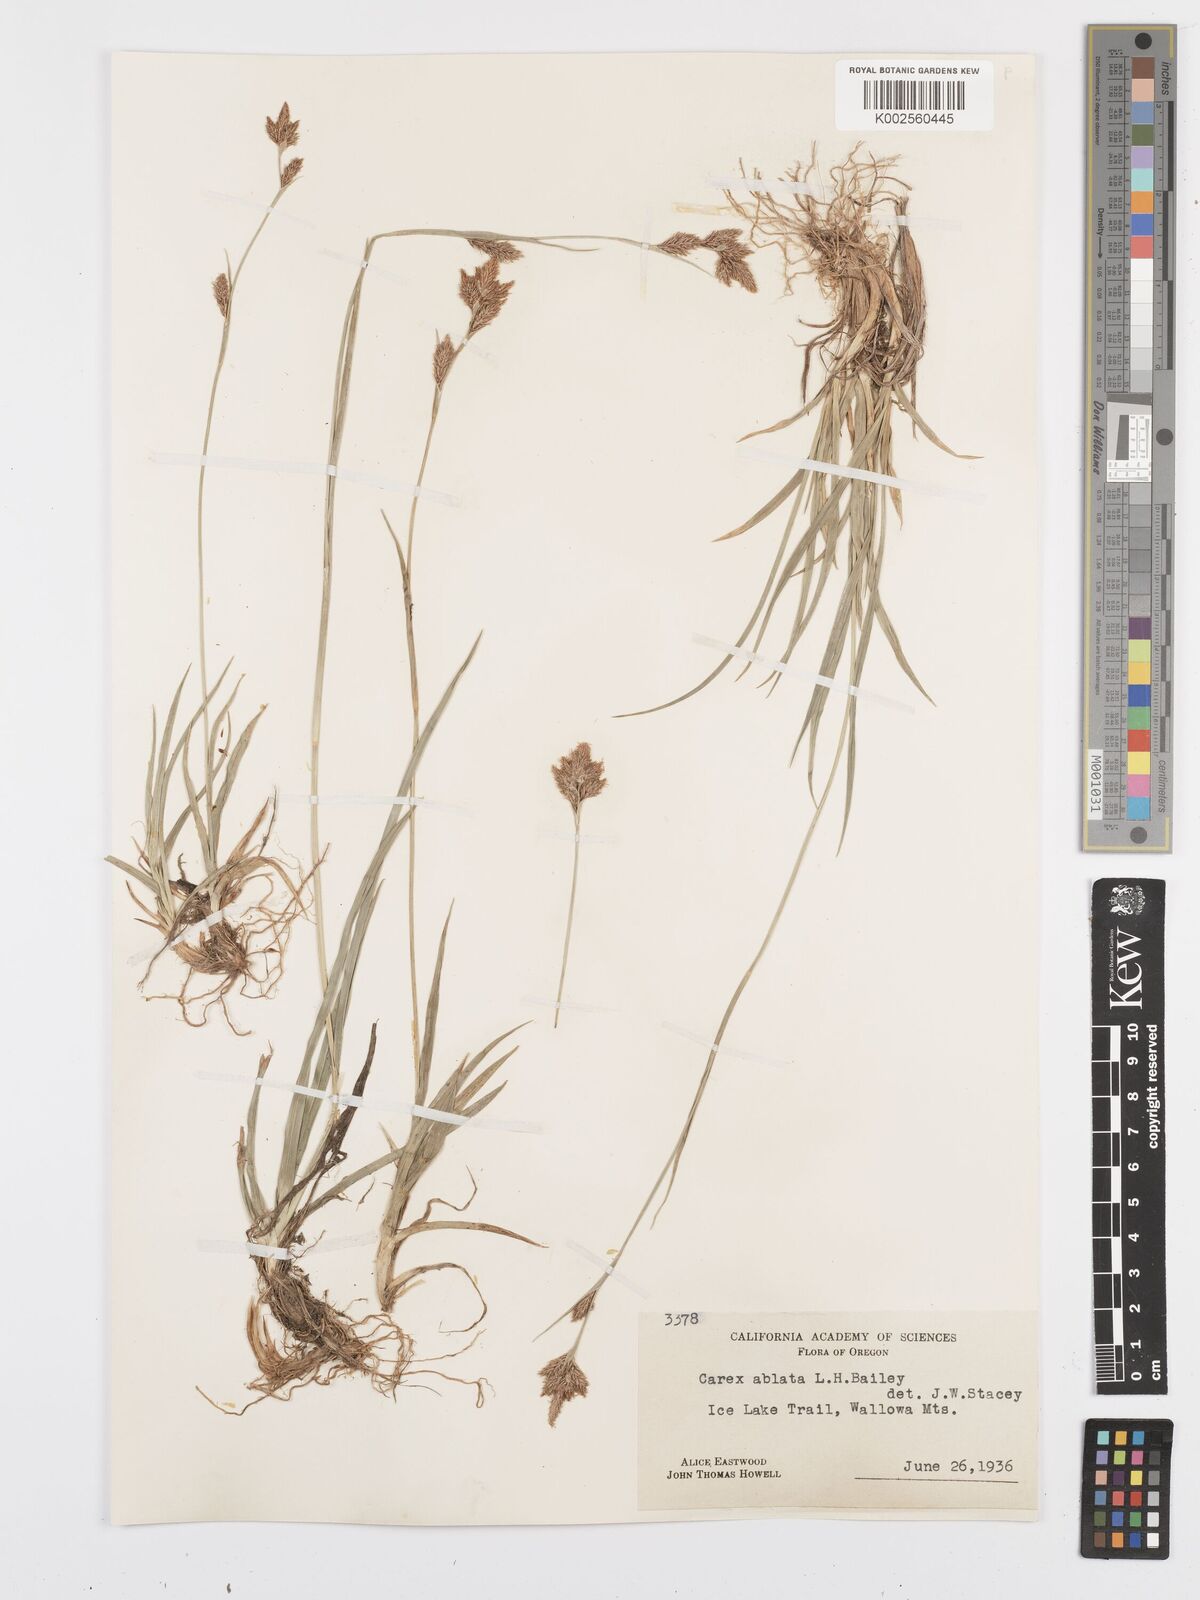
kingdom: Plantae
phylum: Tracheophyta
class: Liliopsida
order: Poales
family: Cyperaceae
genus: Carex
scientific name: Carex luzulina
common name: Spring sedge
